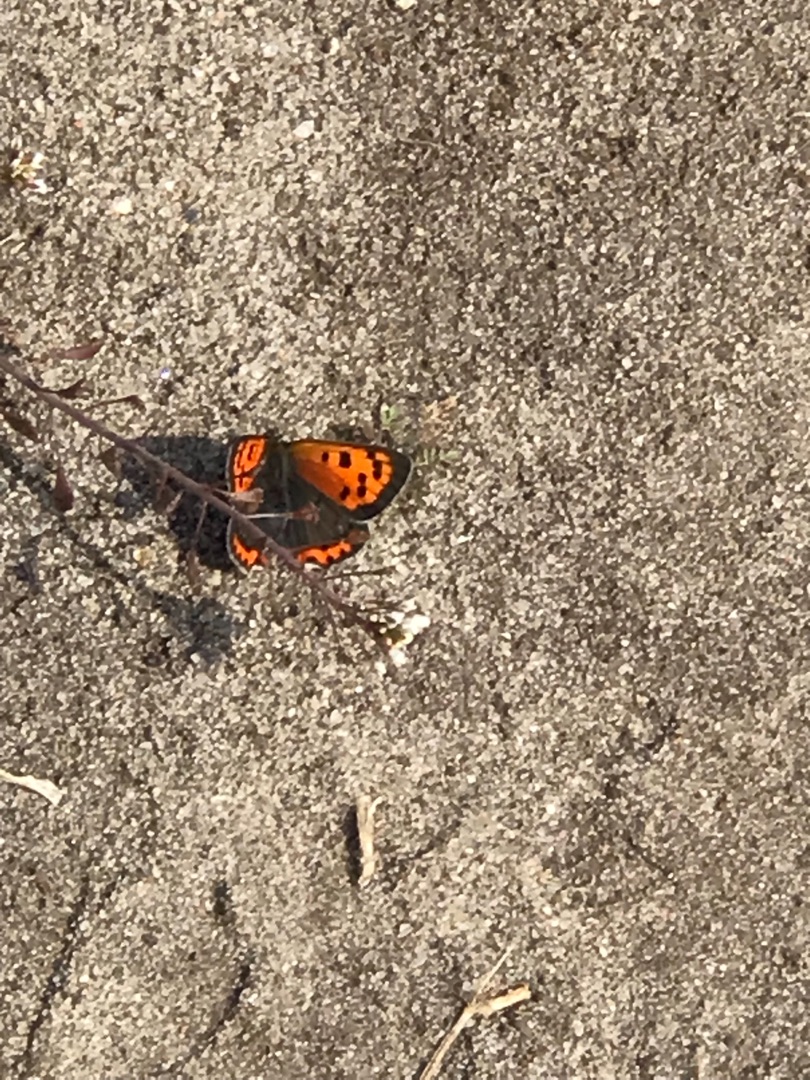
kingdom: Animalia
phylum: Arthropoda
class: Insecta
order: Lepidoptera
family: Lycaenidae
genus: Lycaena
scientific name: Lycaena phlaeas
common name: Lille ildfugl
